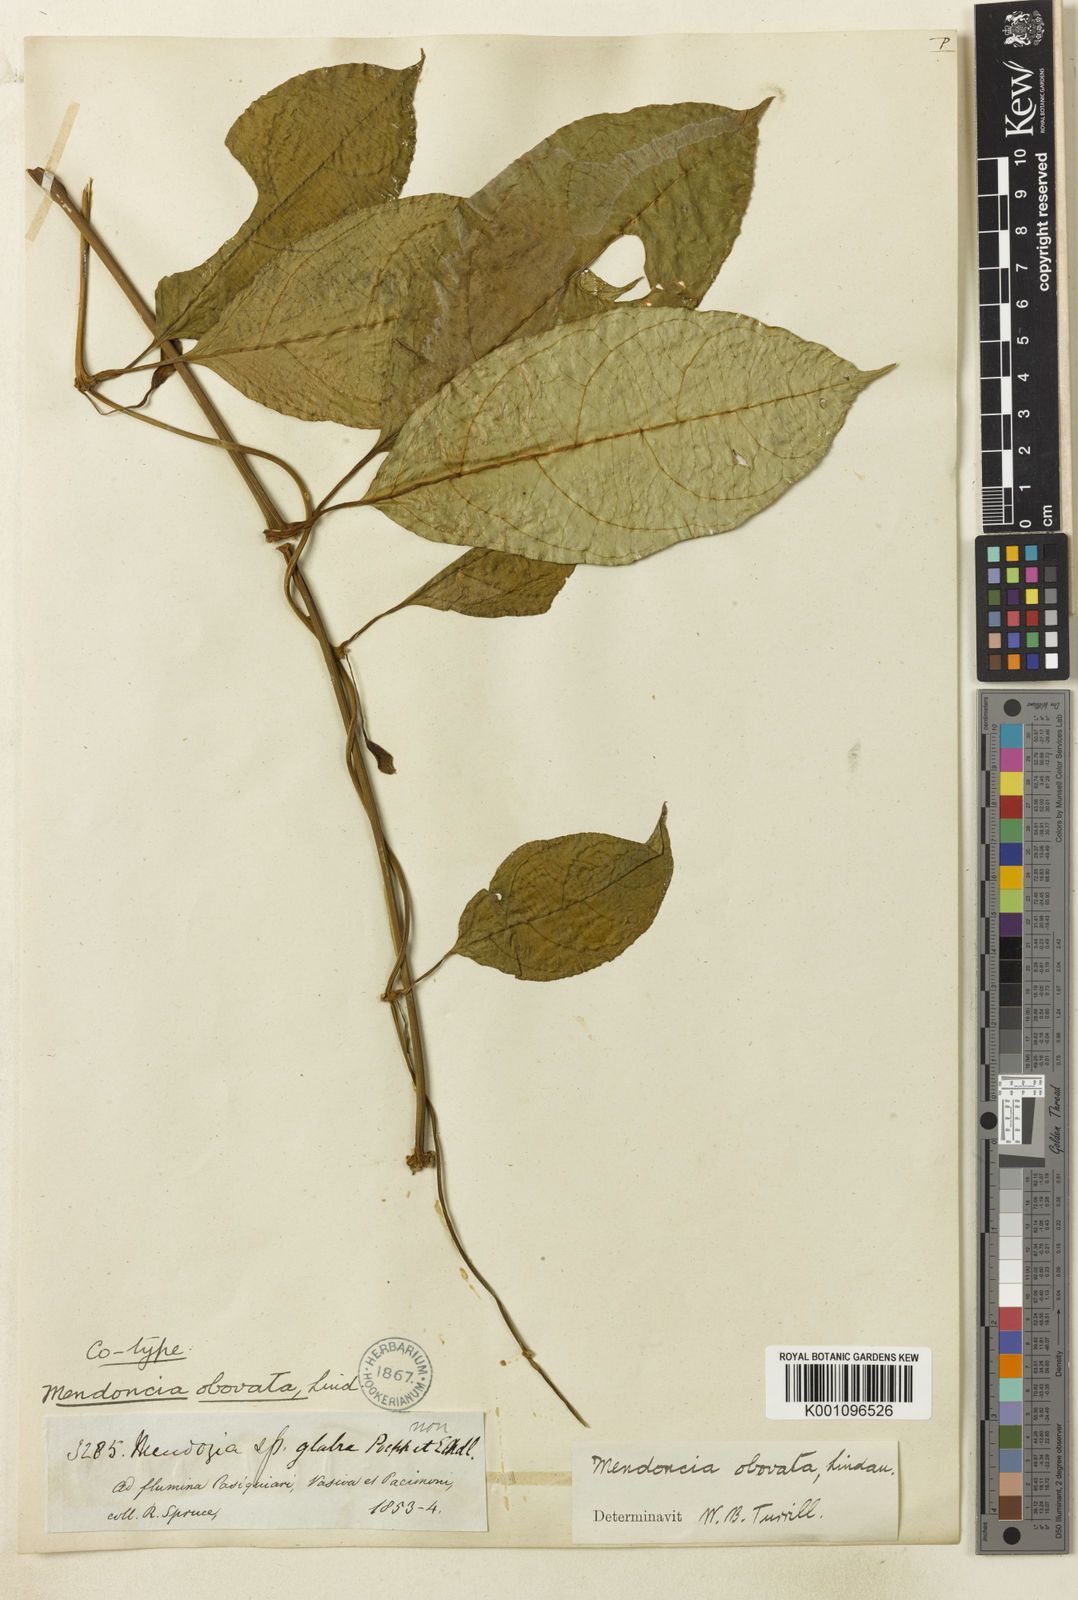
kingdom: Plantae
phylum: Tracheophyta
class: Magnoliopsida
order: Lamiales
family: Acanthaceae
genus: Mendoncia
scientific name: Mendoncia obovata
